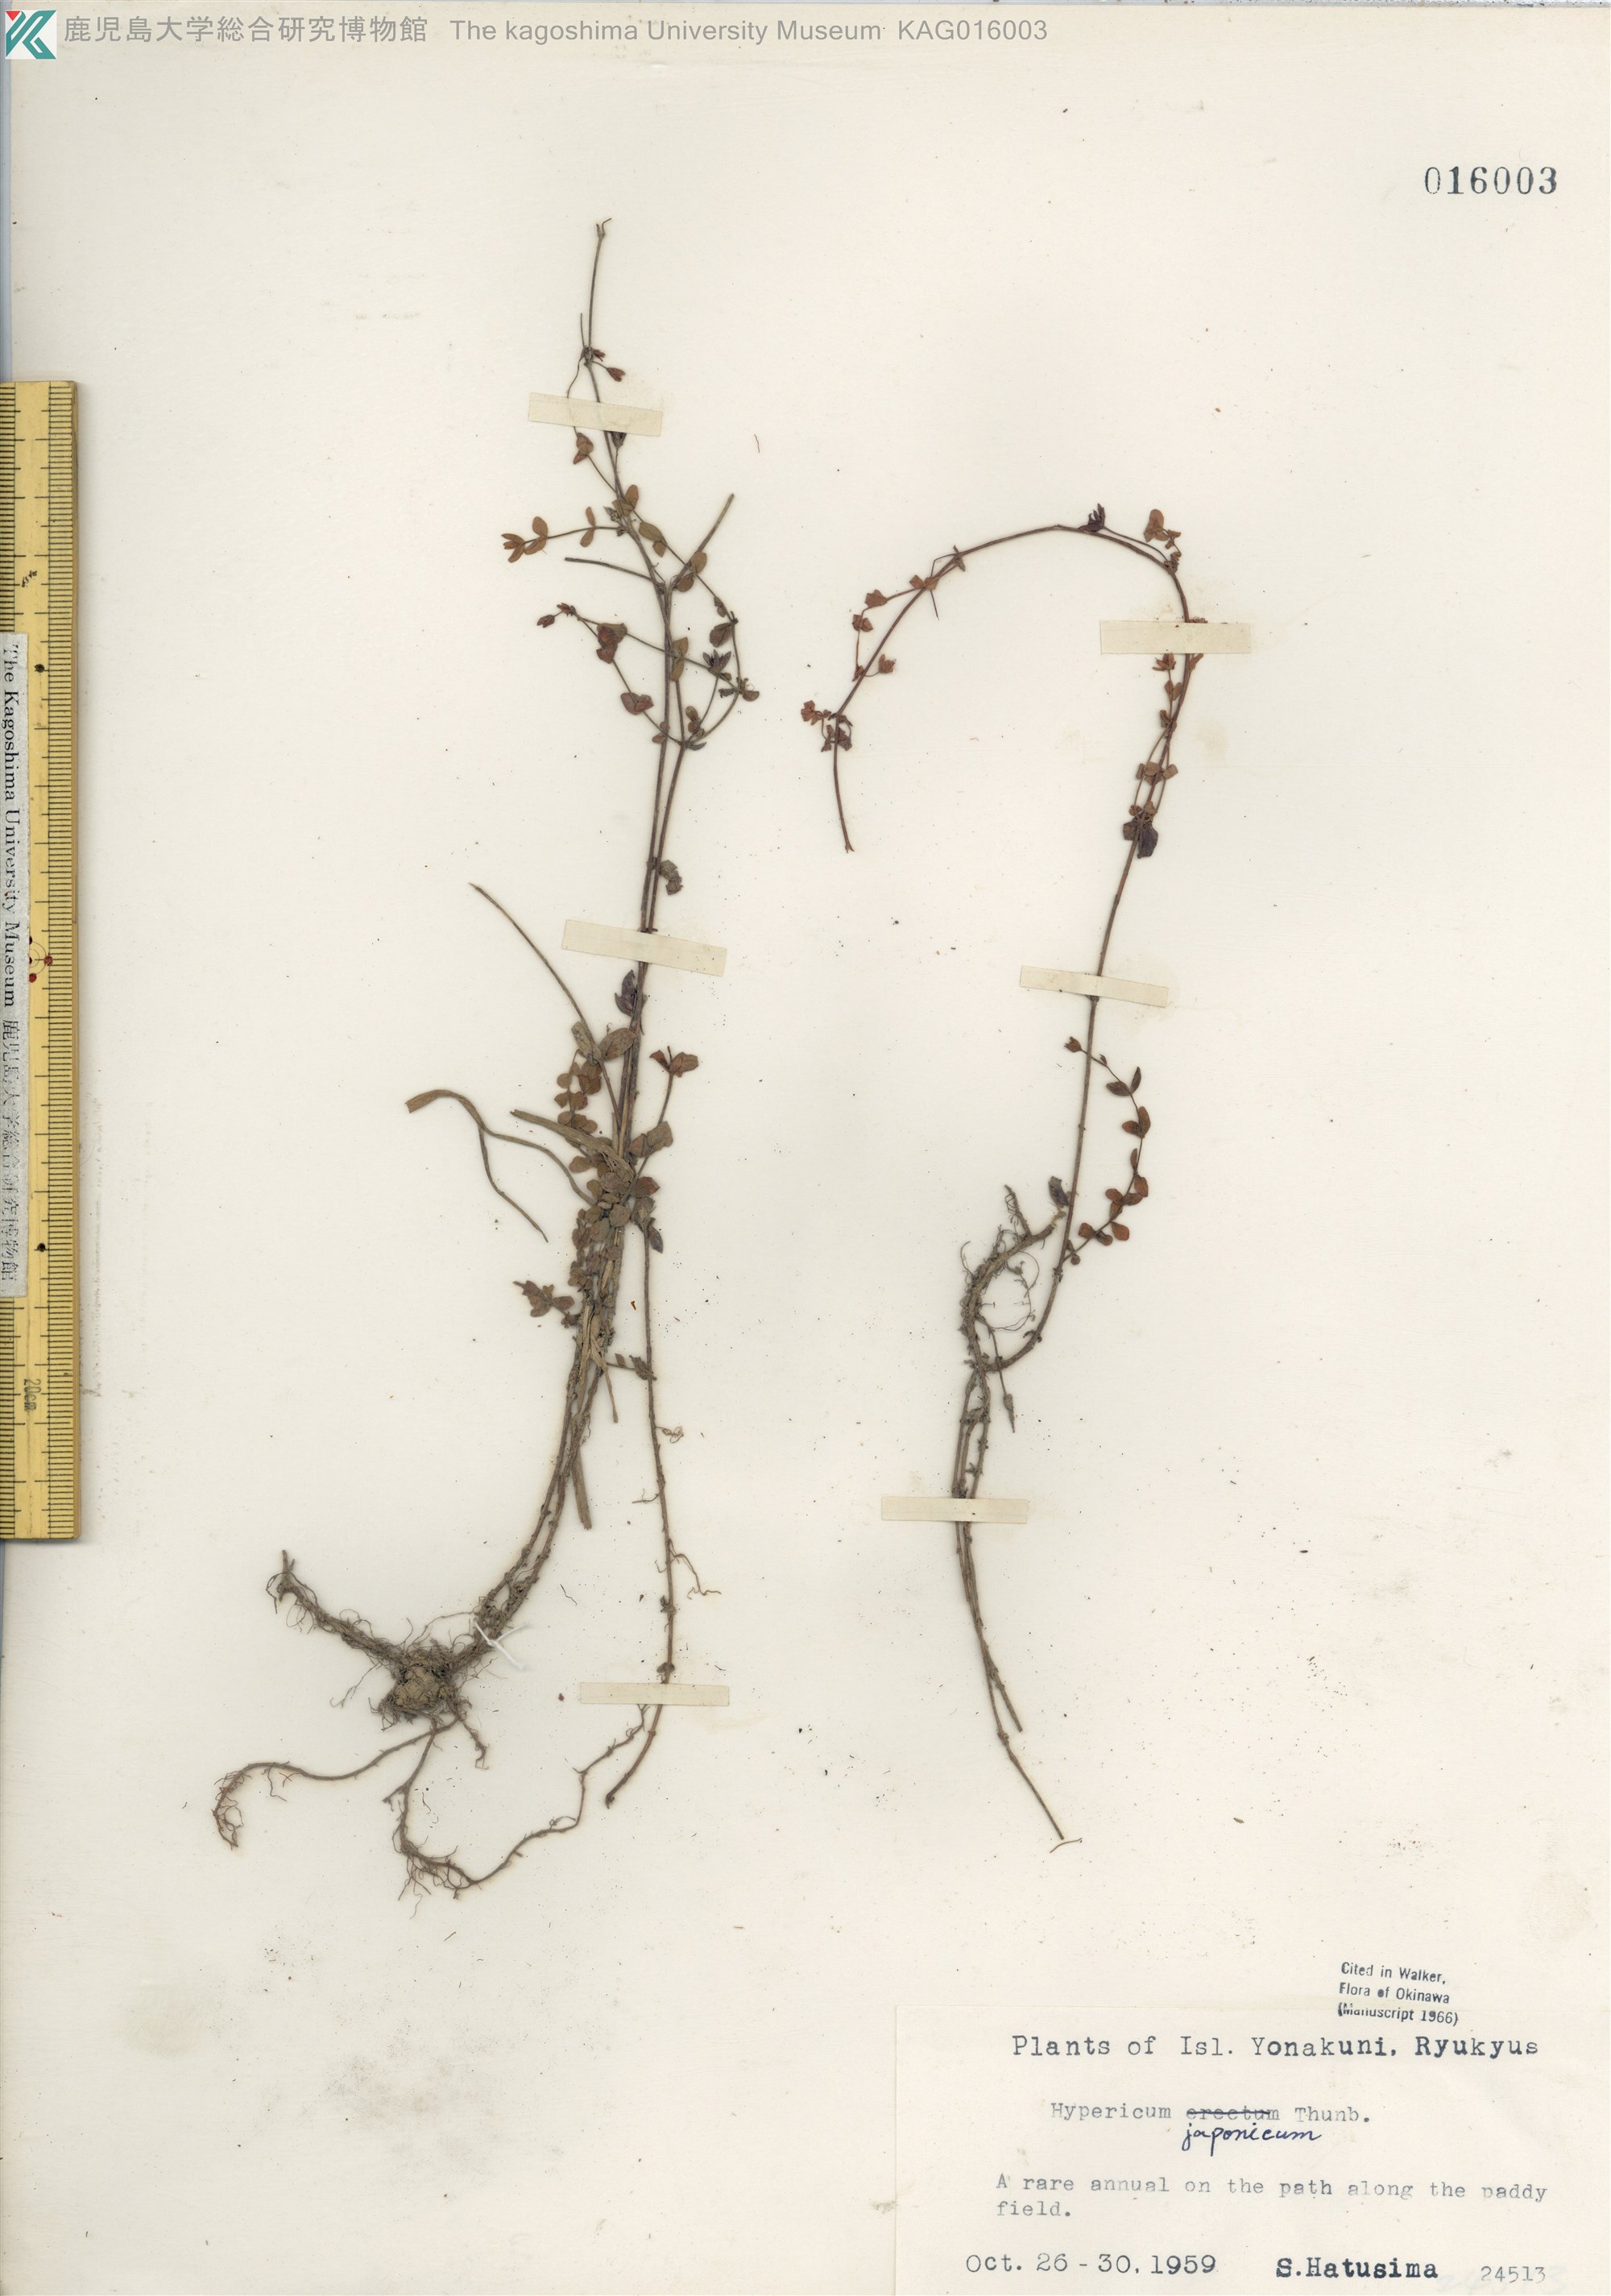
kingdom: Plantae
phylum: Tracheophyta
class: Magnoliopsida
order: Malpighiales
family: Hypericaceae
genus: Hypericum
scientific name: Hypericum japonicum
